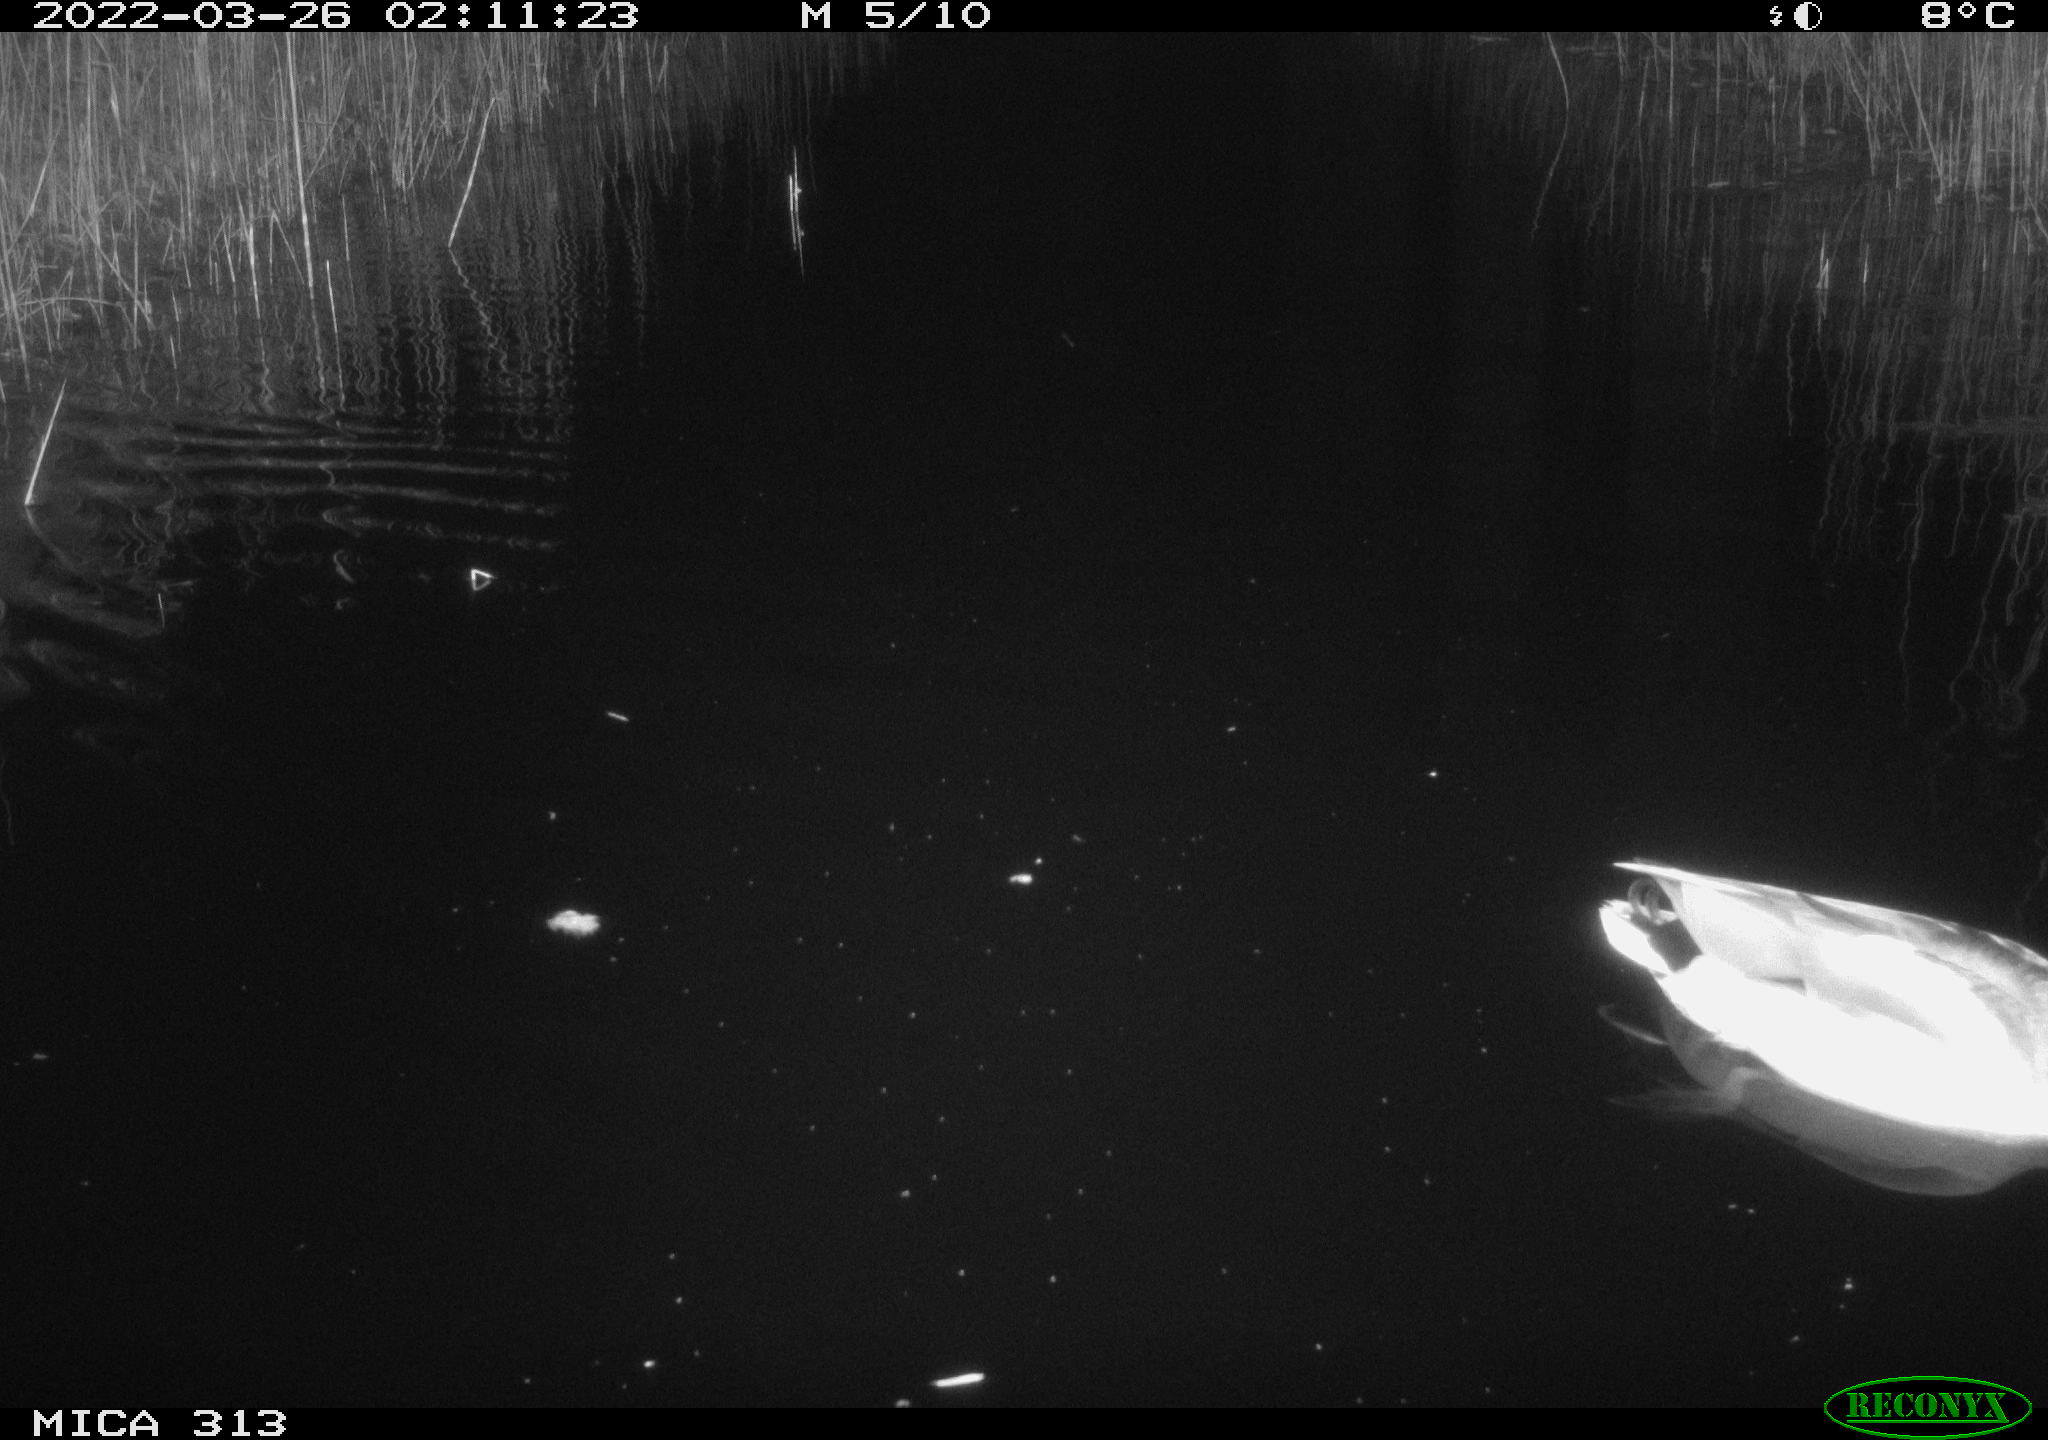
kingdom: Animalia
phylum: Chordata
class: Aves
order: Anseriformes
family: Anatidae
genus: Anas
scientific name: Anas platyrhynchos
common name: Mallard
